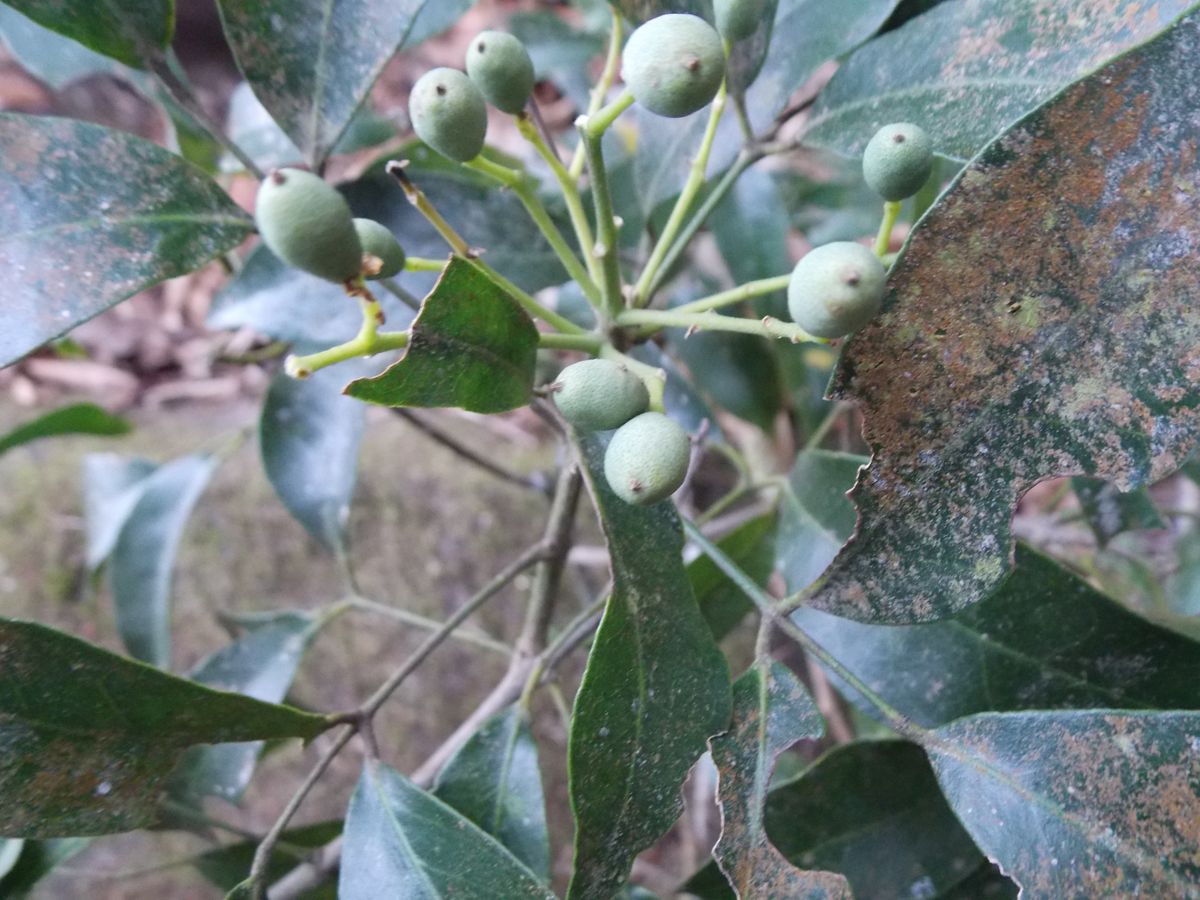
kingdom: Plantae
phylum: Tracheophyta
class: Magnoliopsida
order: Sapindales
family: Rutaceae
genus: Amyris
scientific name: Amyris guatemalensis
